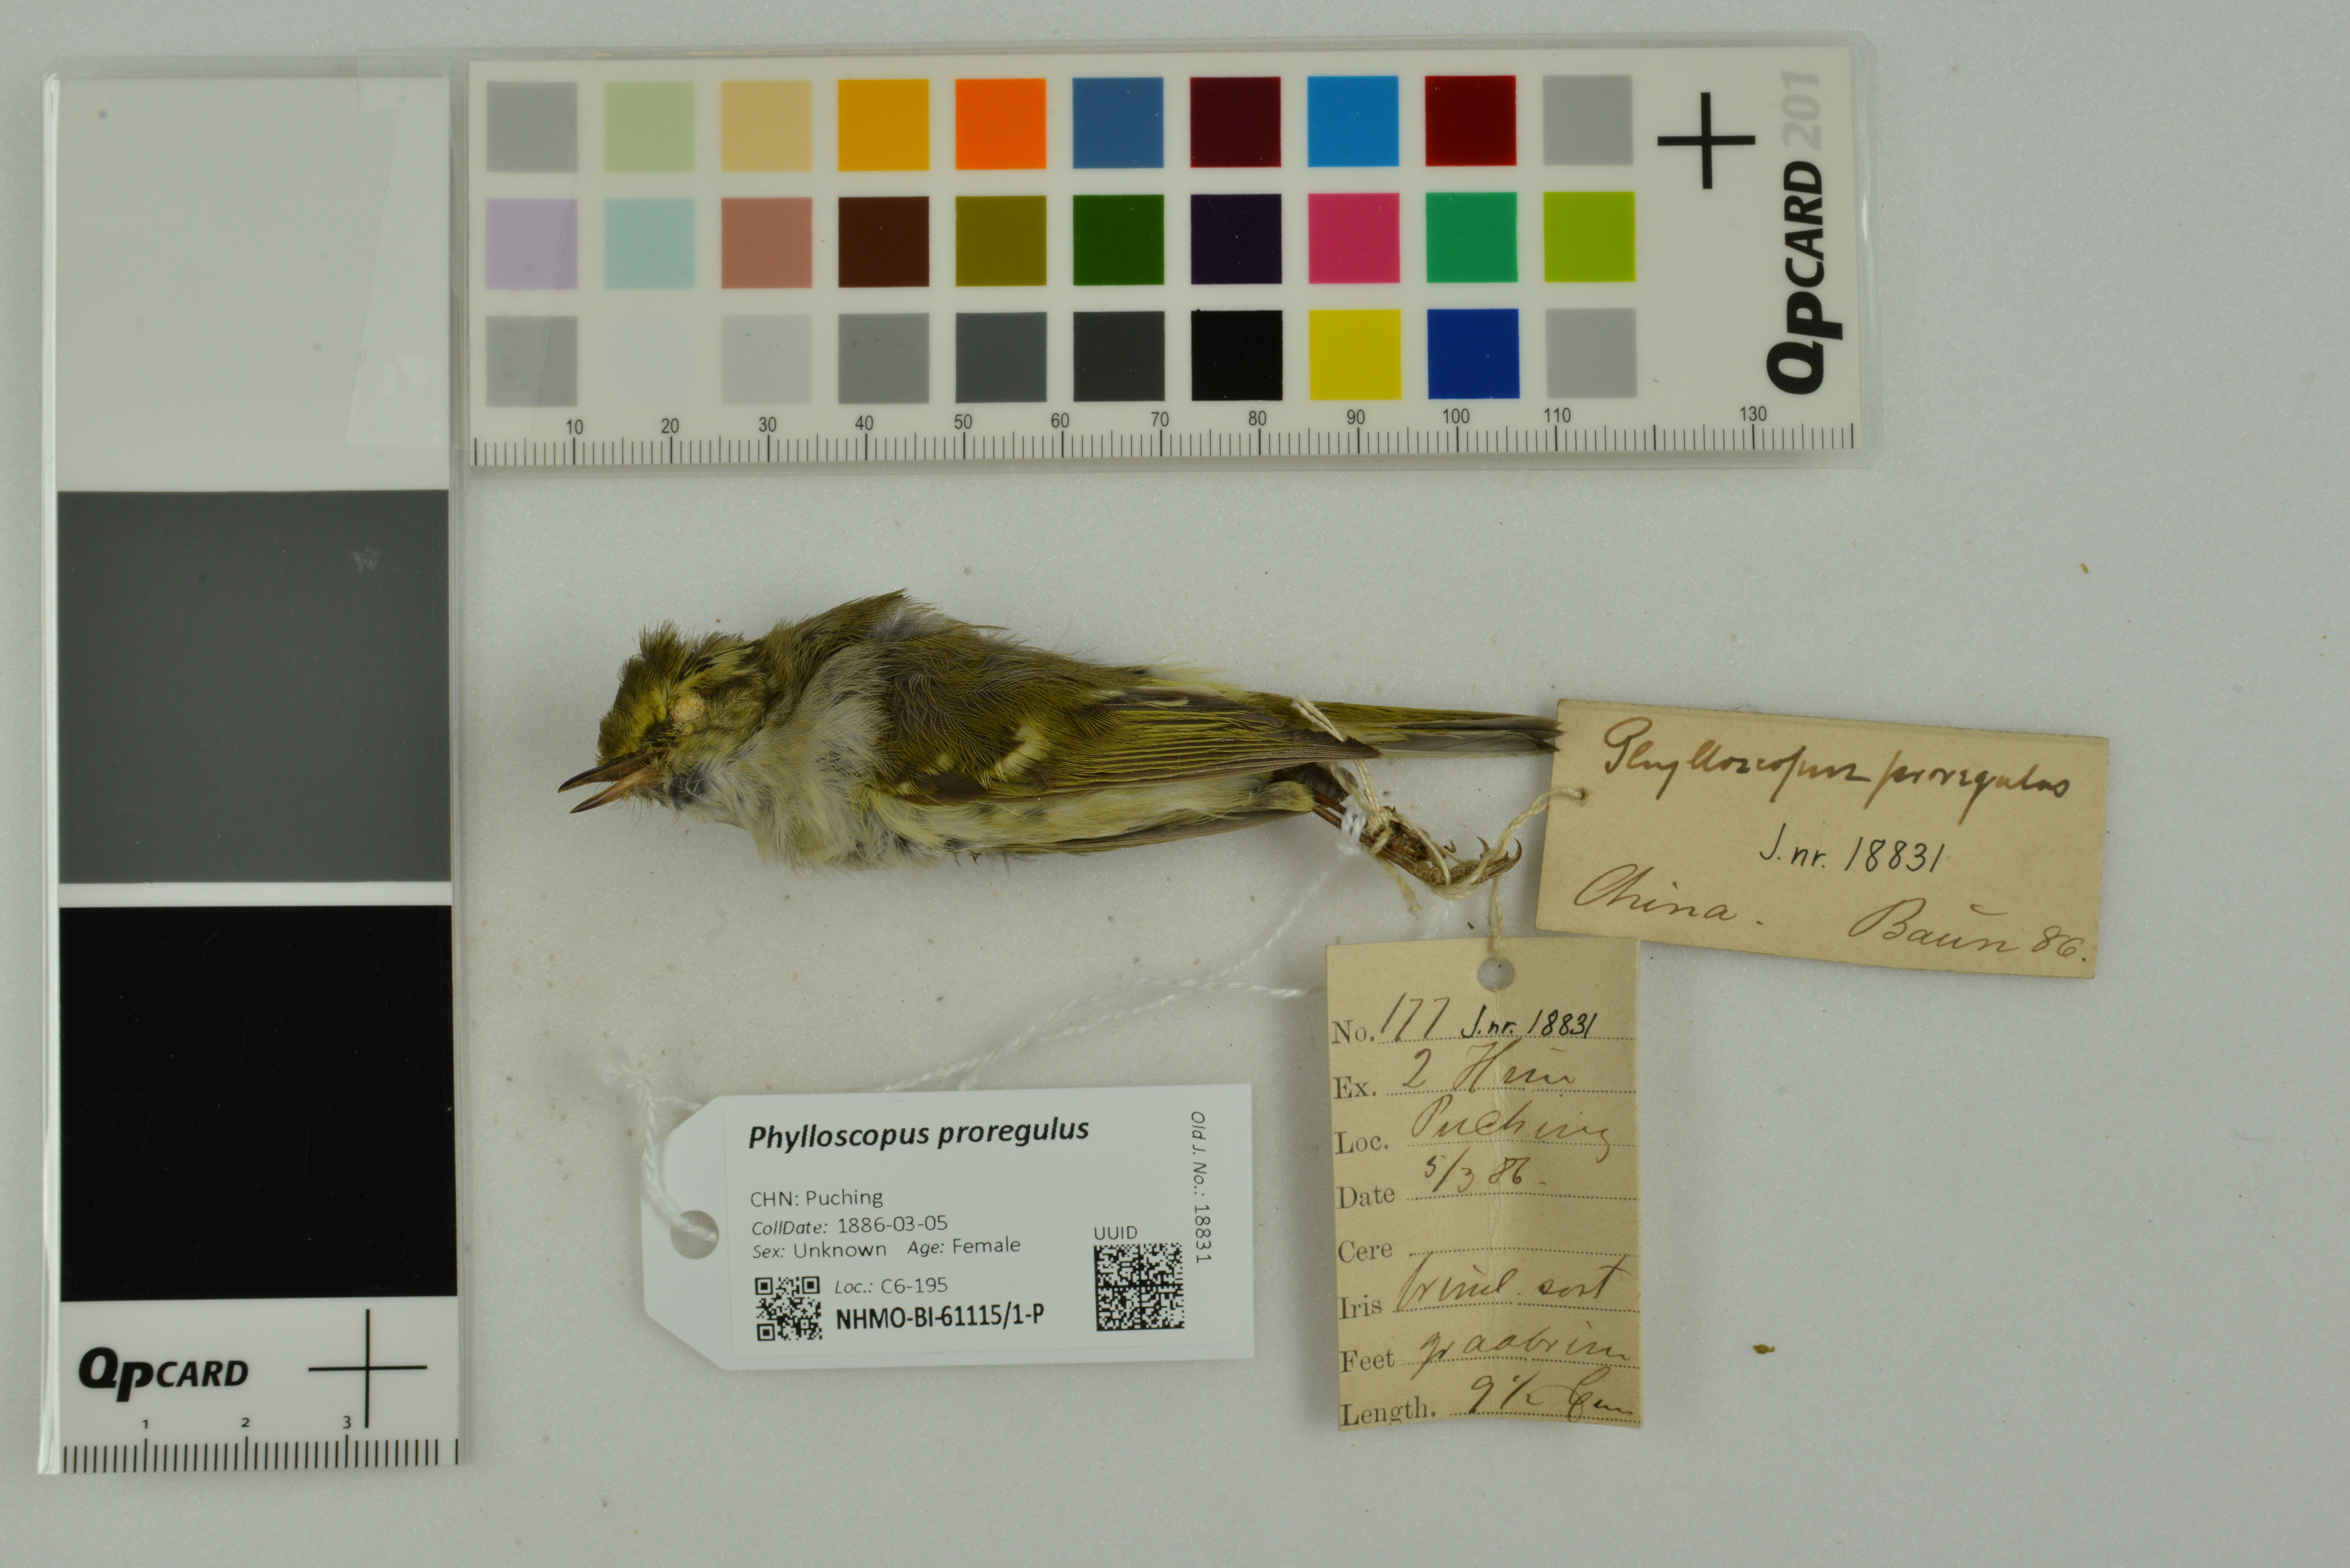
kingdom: Animalia
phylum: Chordata
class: Aves
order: Passeriformes
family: Phylloscopidae
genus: Phylloscopus
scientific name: Phylloscopus proregulus
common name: Pallas's leaf warbler
